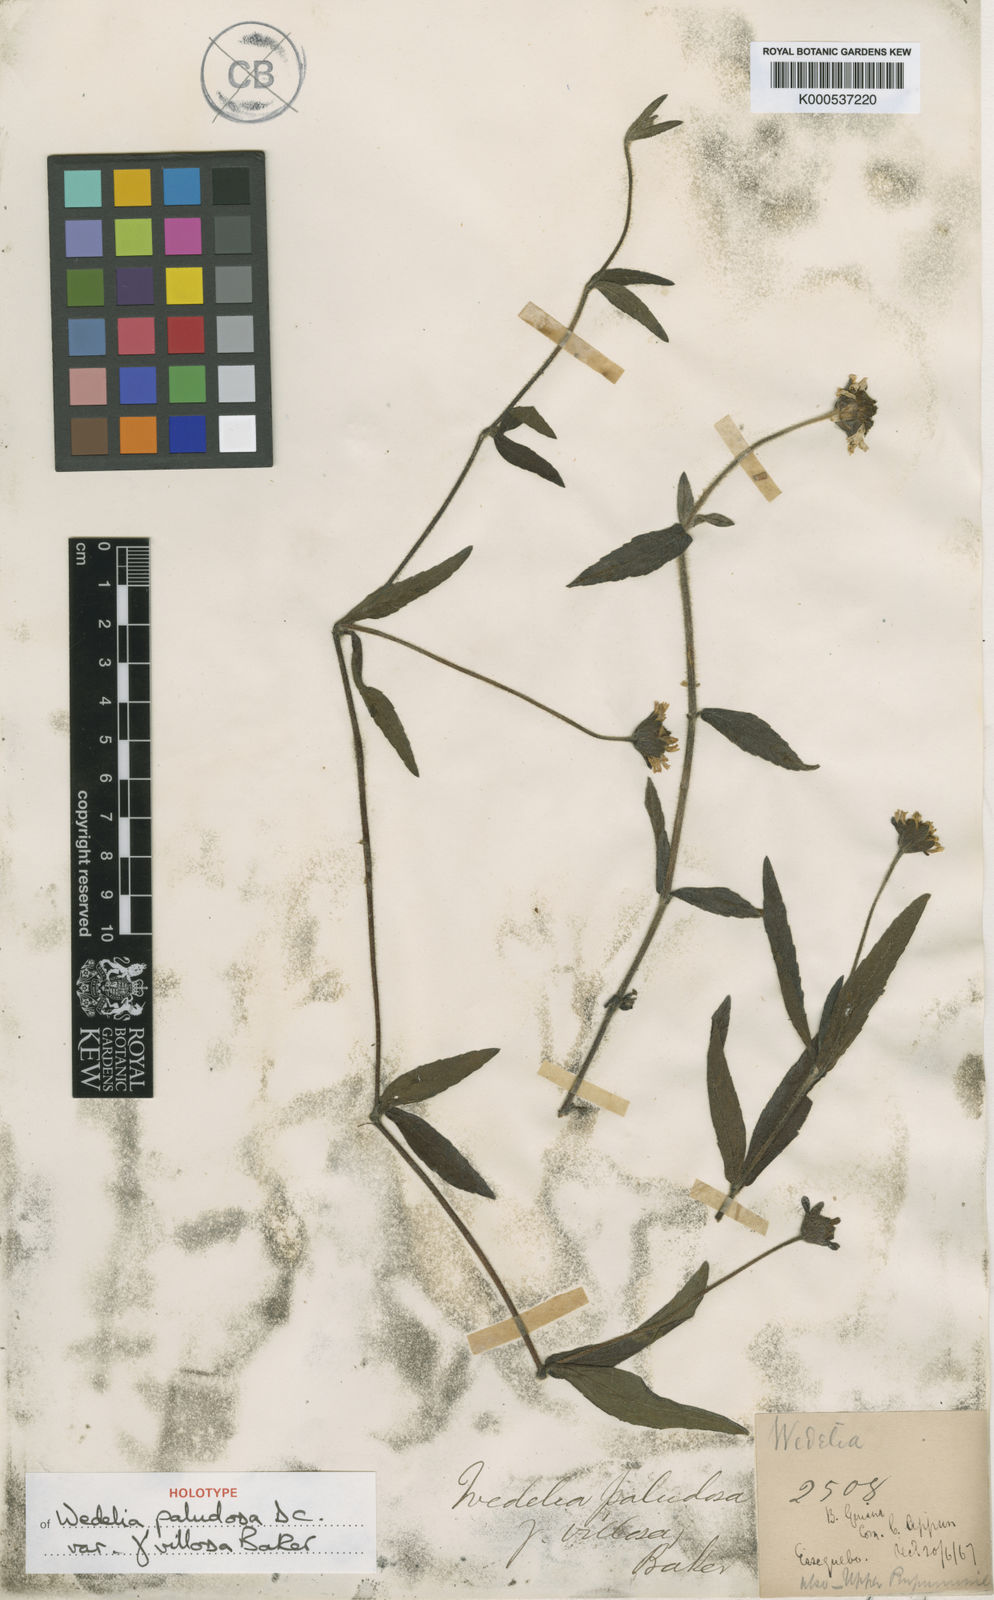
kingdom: Plantae
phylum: Tracheophyta
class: Magnoliopsida
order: Asterales
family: Asteraceae
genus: Sphagneticola
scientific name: Sphagneticola brachycarpa
